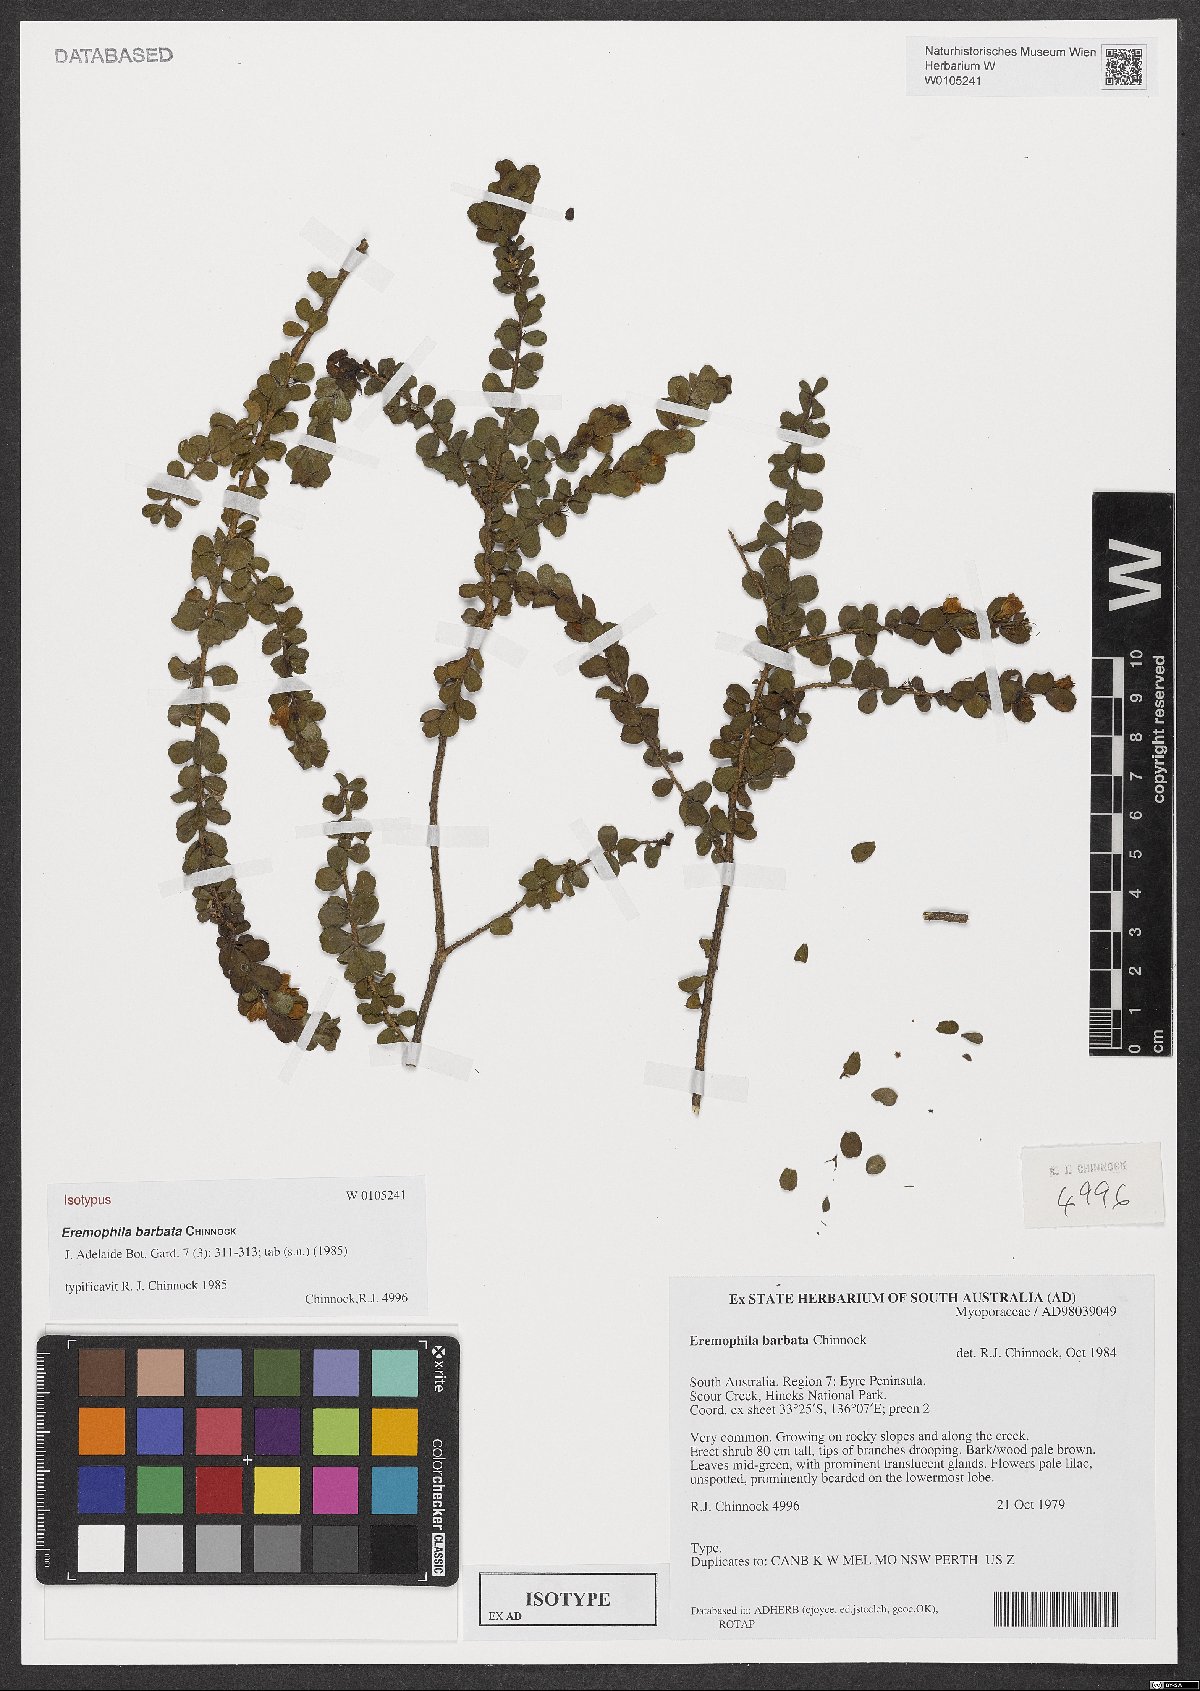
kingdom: Plantae
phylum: Tracheophyta
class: Magnoliopsida
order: Lamiales
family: Scrophulariaceae
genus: Eremophila
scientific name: Eremophila barbata
